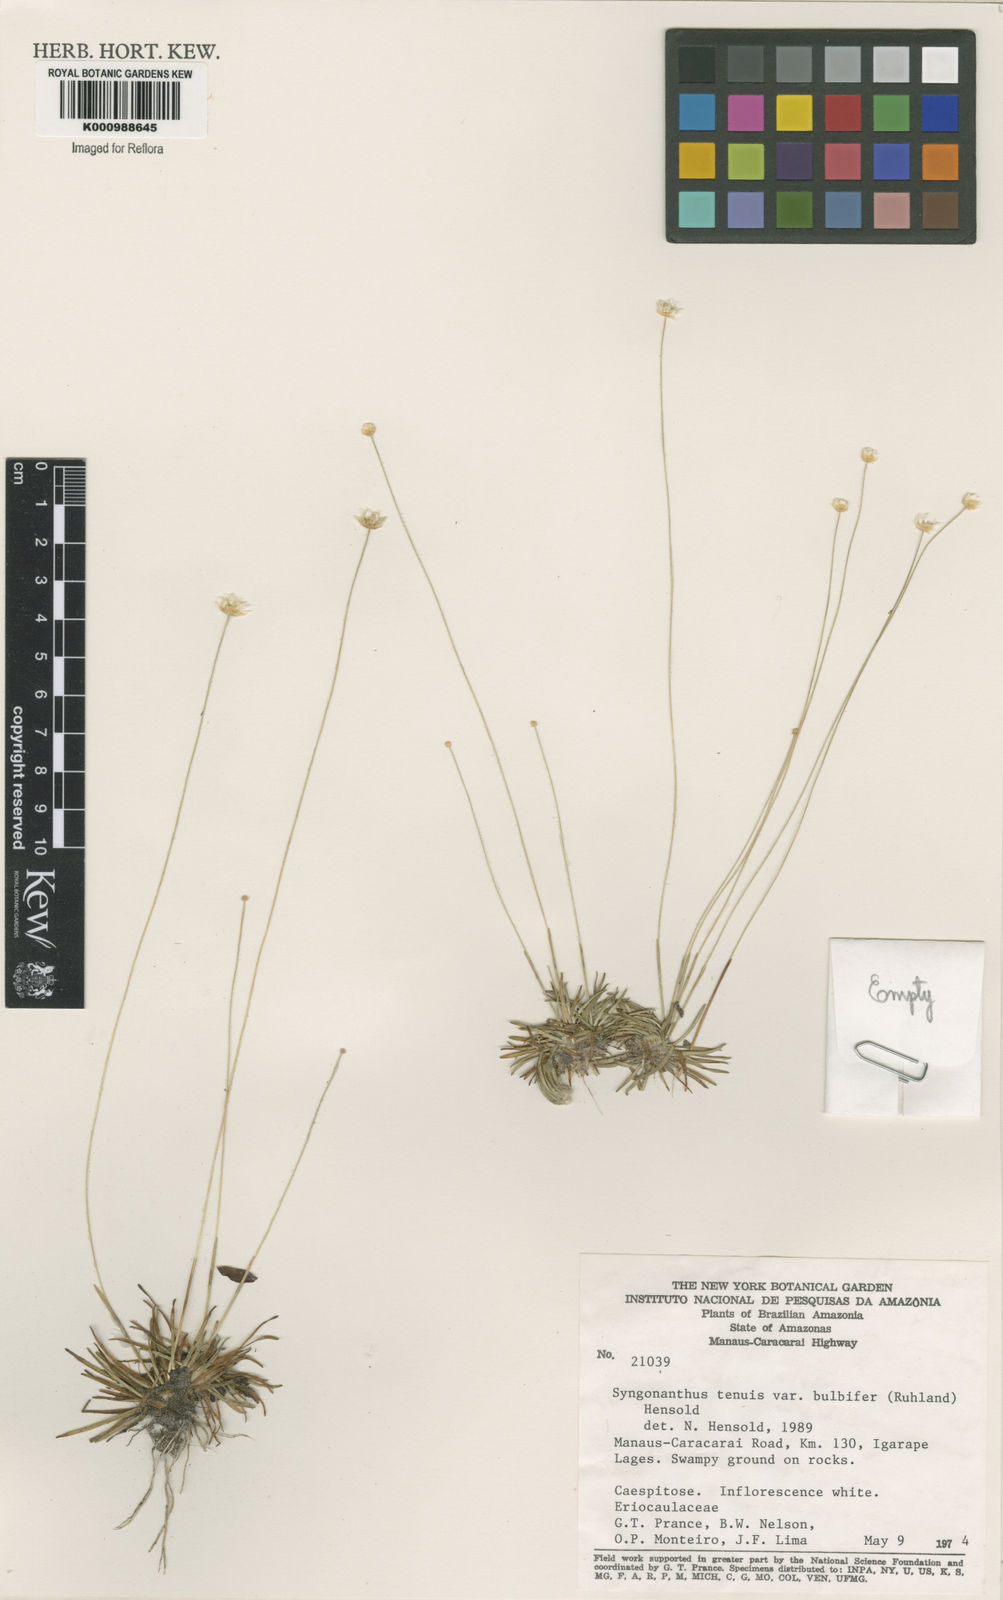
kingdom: Plantae
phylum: Tracheophyta
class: Liliopsida
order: Poales
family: Eriocaulaceae
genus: Syngonanthus
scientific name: Syngonanthus tenuis
